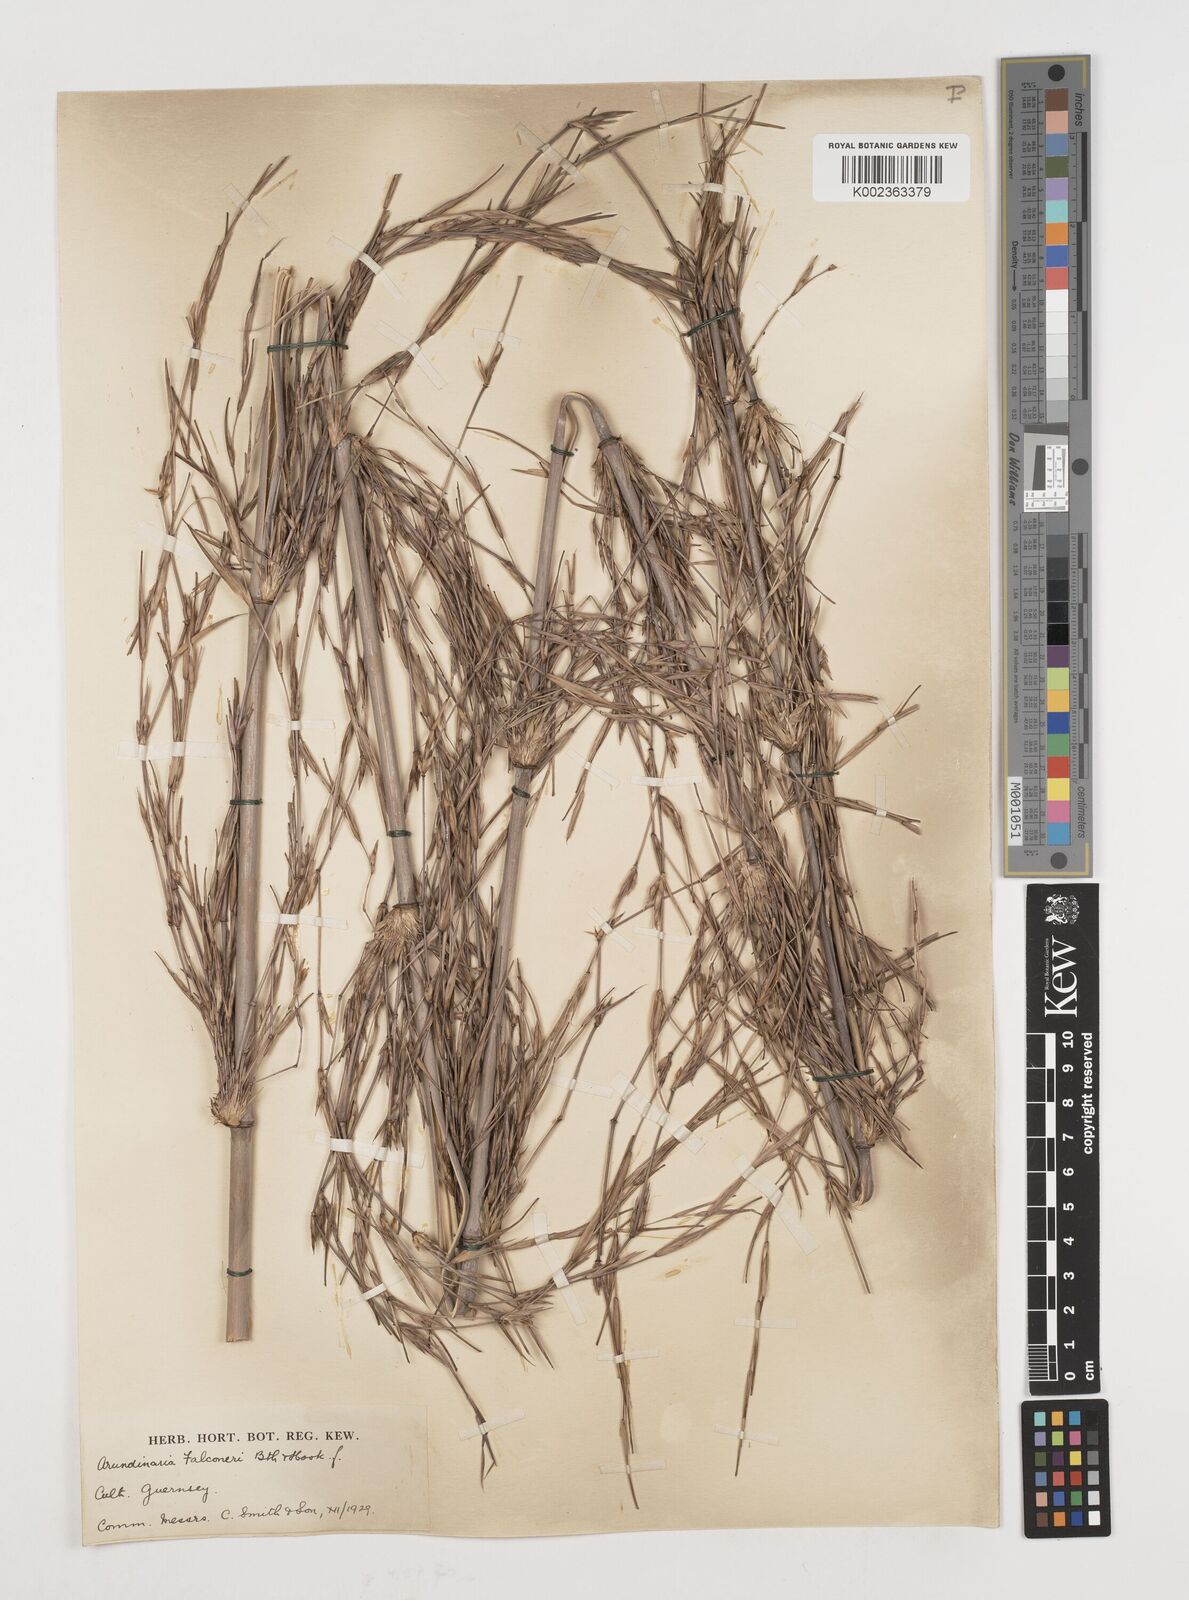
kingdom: Plantae
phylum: Tracheophyta
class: Liliopsida
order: Poales
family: Poaceae
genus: Himalayacalamus
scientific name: Himalayacalamus falconeri
